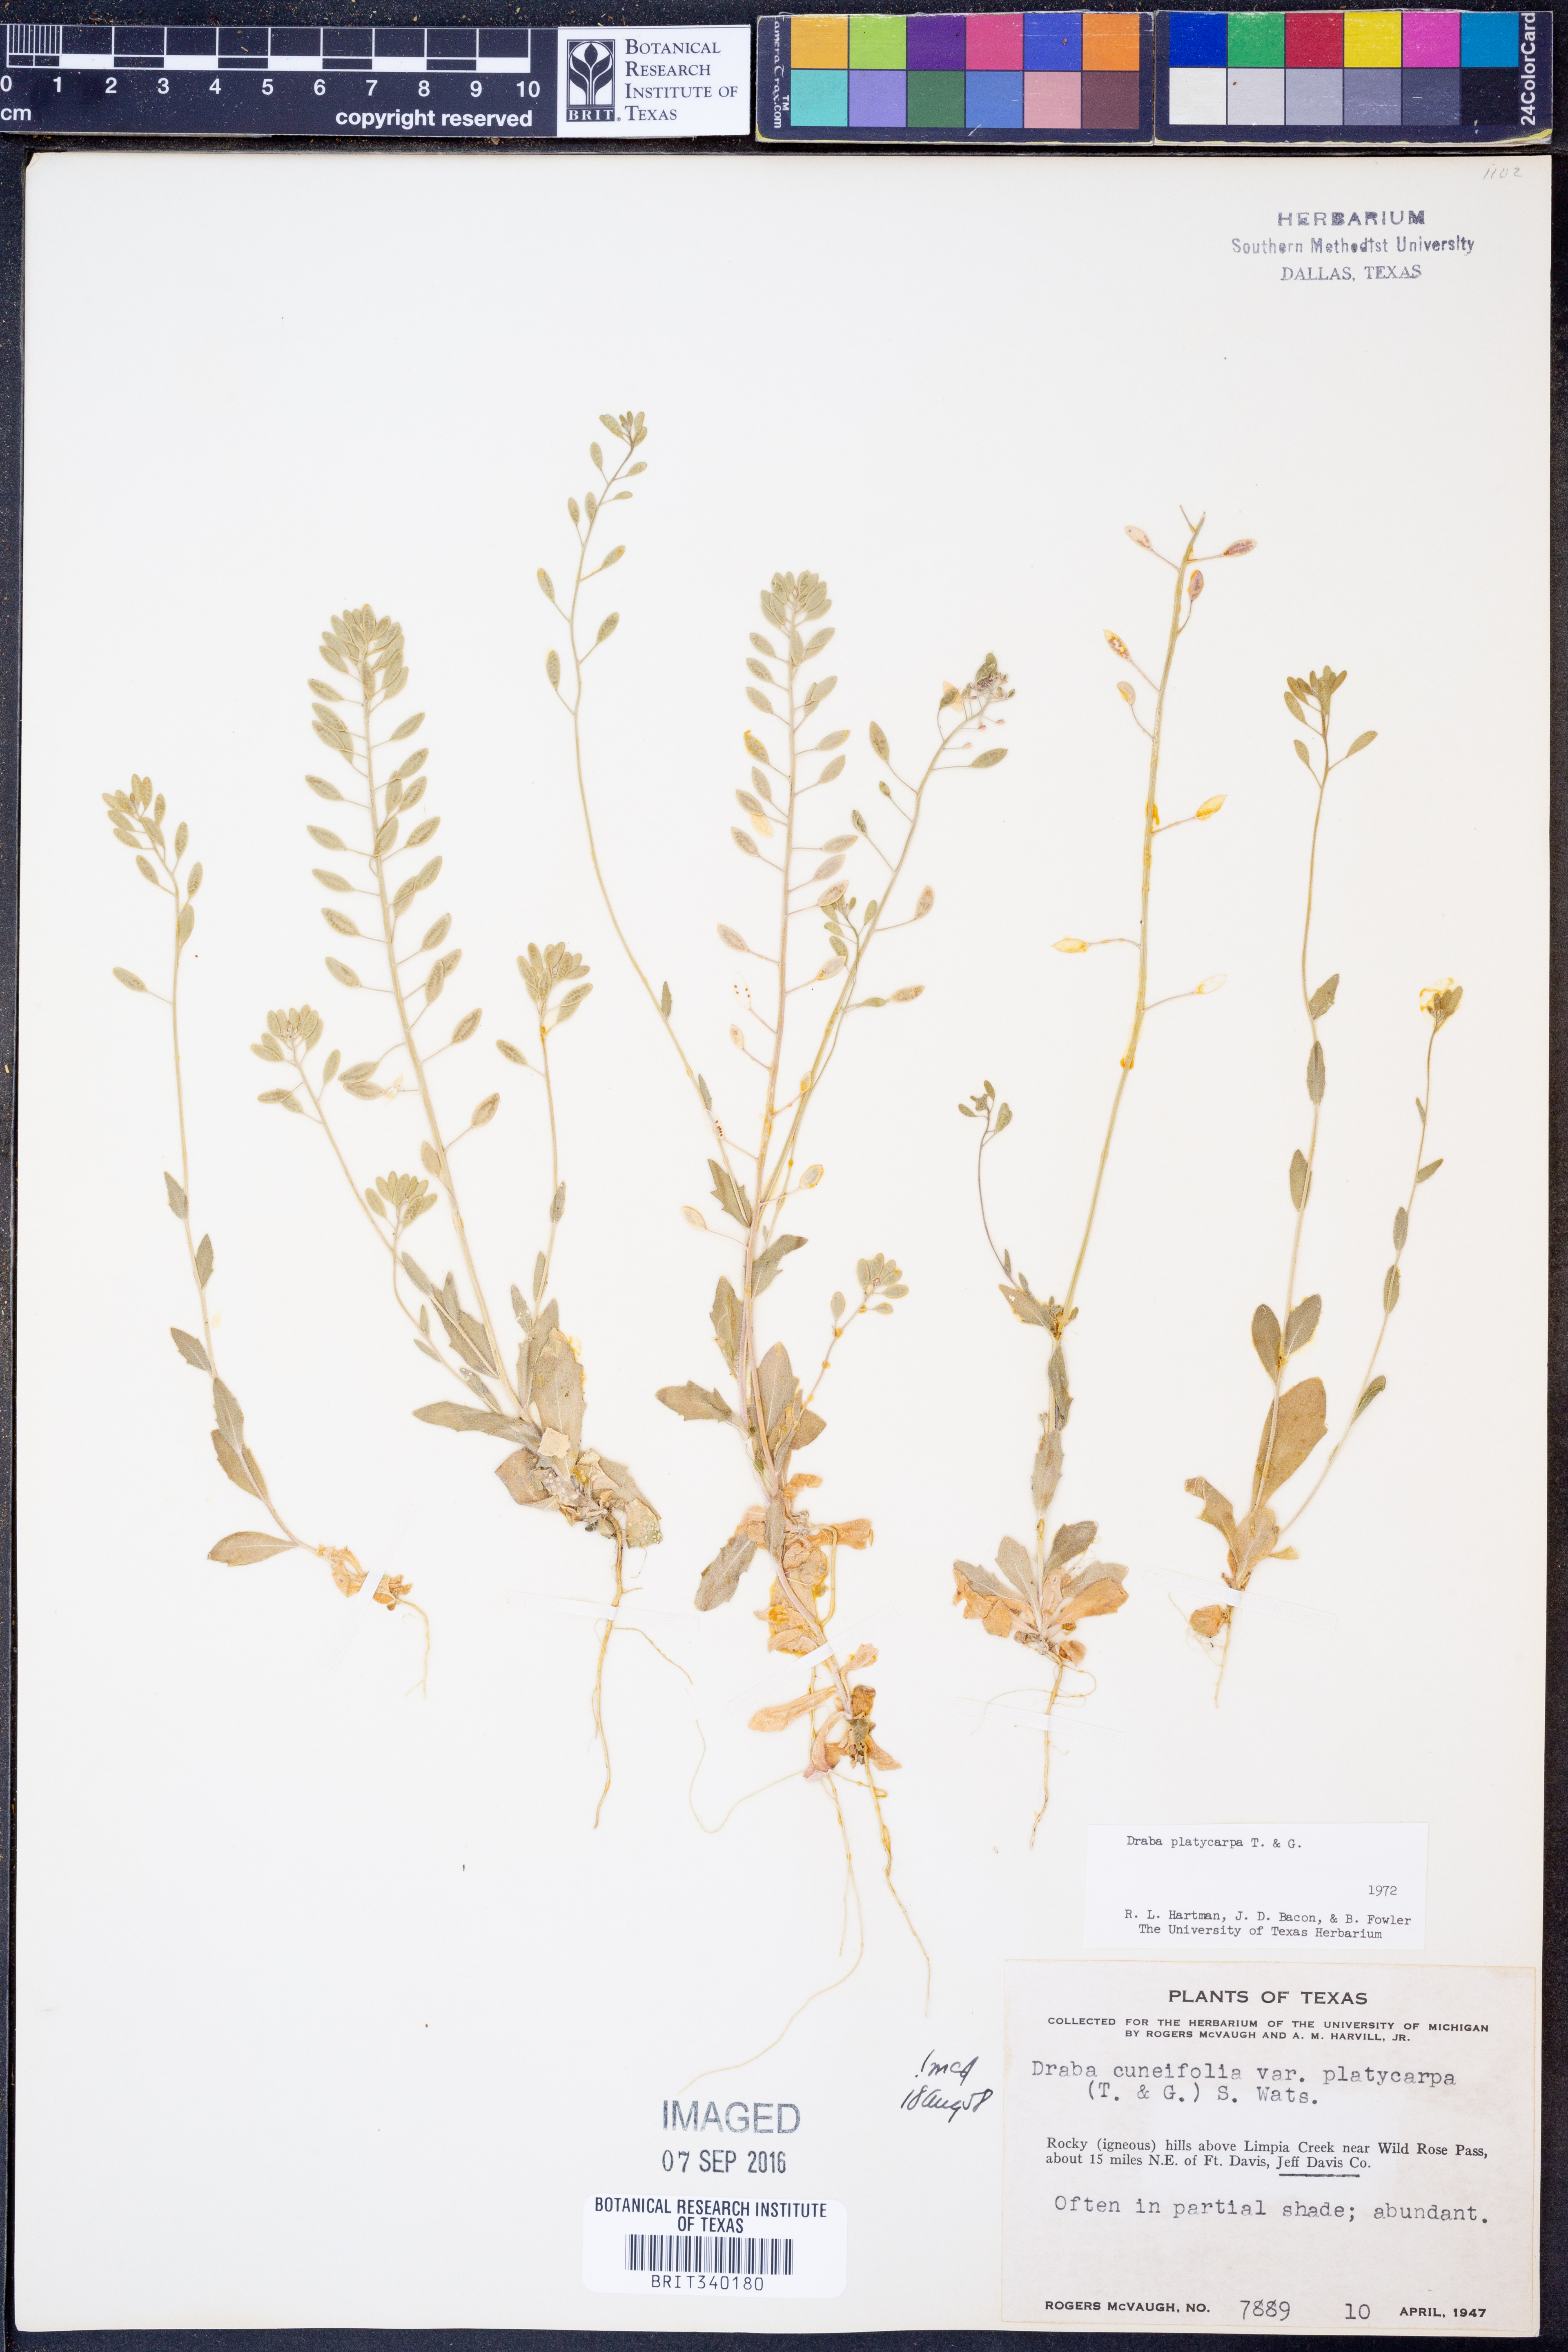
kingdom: Plantae
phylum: Tracheophyta
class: Magnoliopsida
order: Brassicales
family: Brassicaceae
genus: Tomostima
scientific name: Tomostima platycarpa
